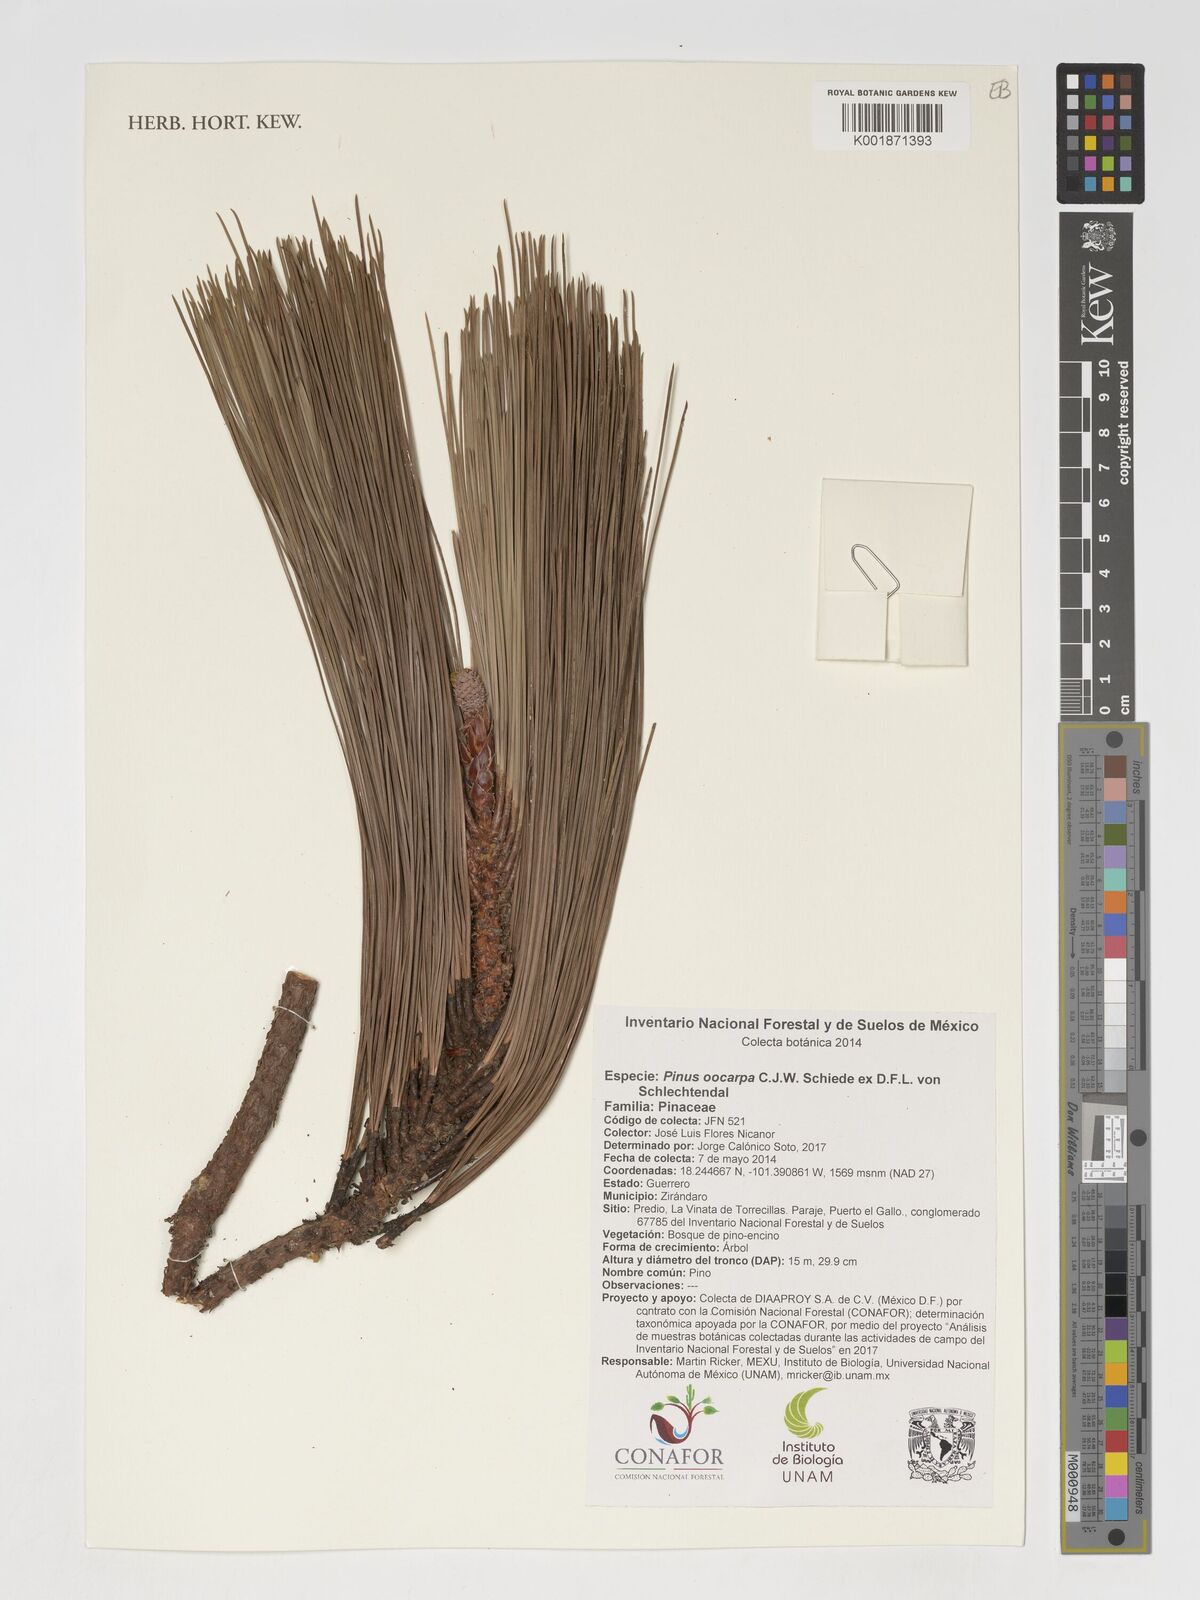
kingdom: Plantae
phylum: Tracheophyta
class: Pinopsida
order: Pinales
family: Pinaceae
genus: Pinus
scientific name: Pinus oocarpa
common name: Egg-cone pine
